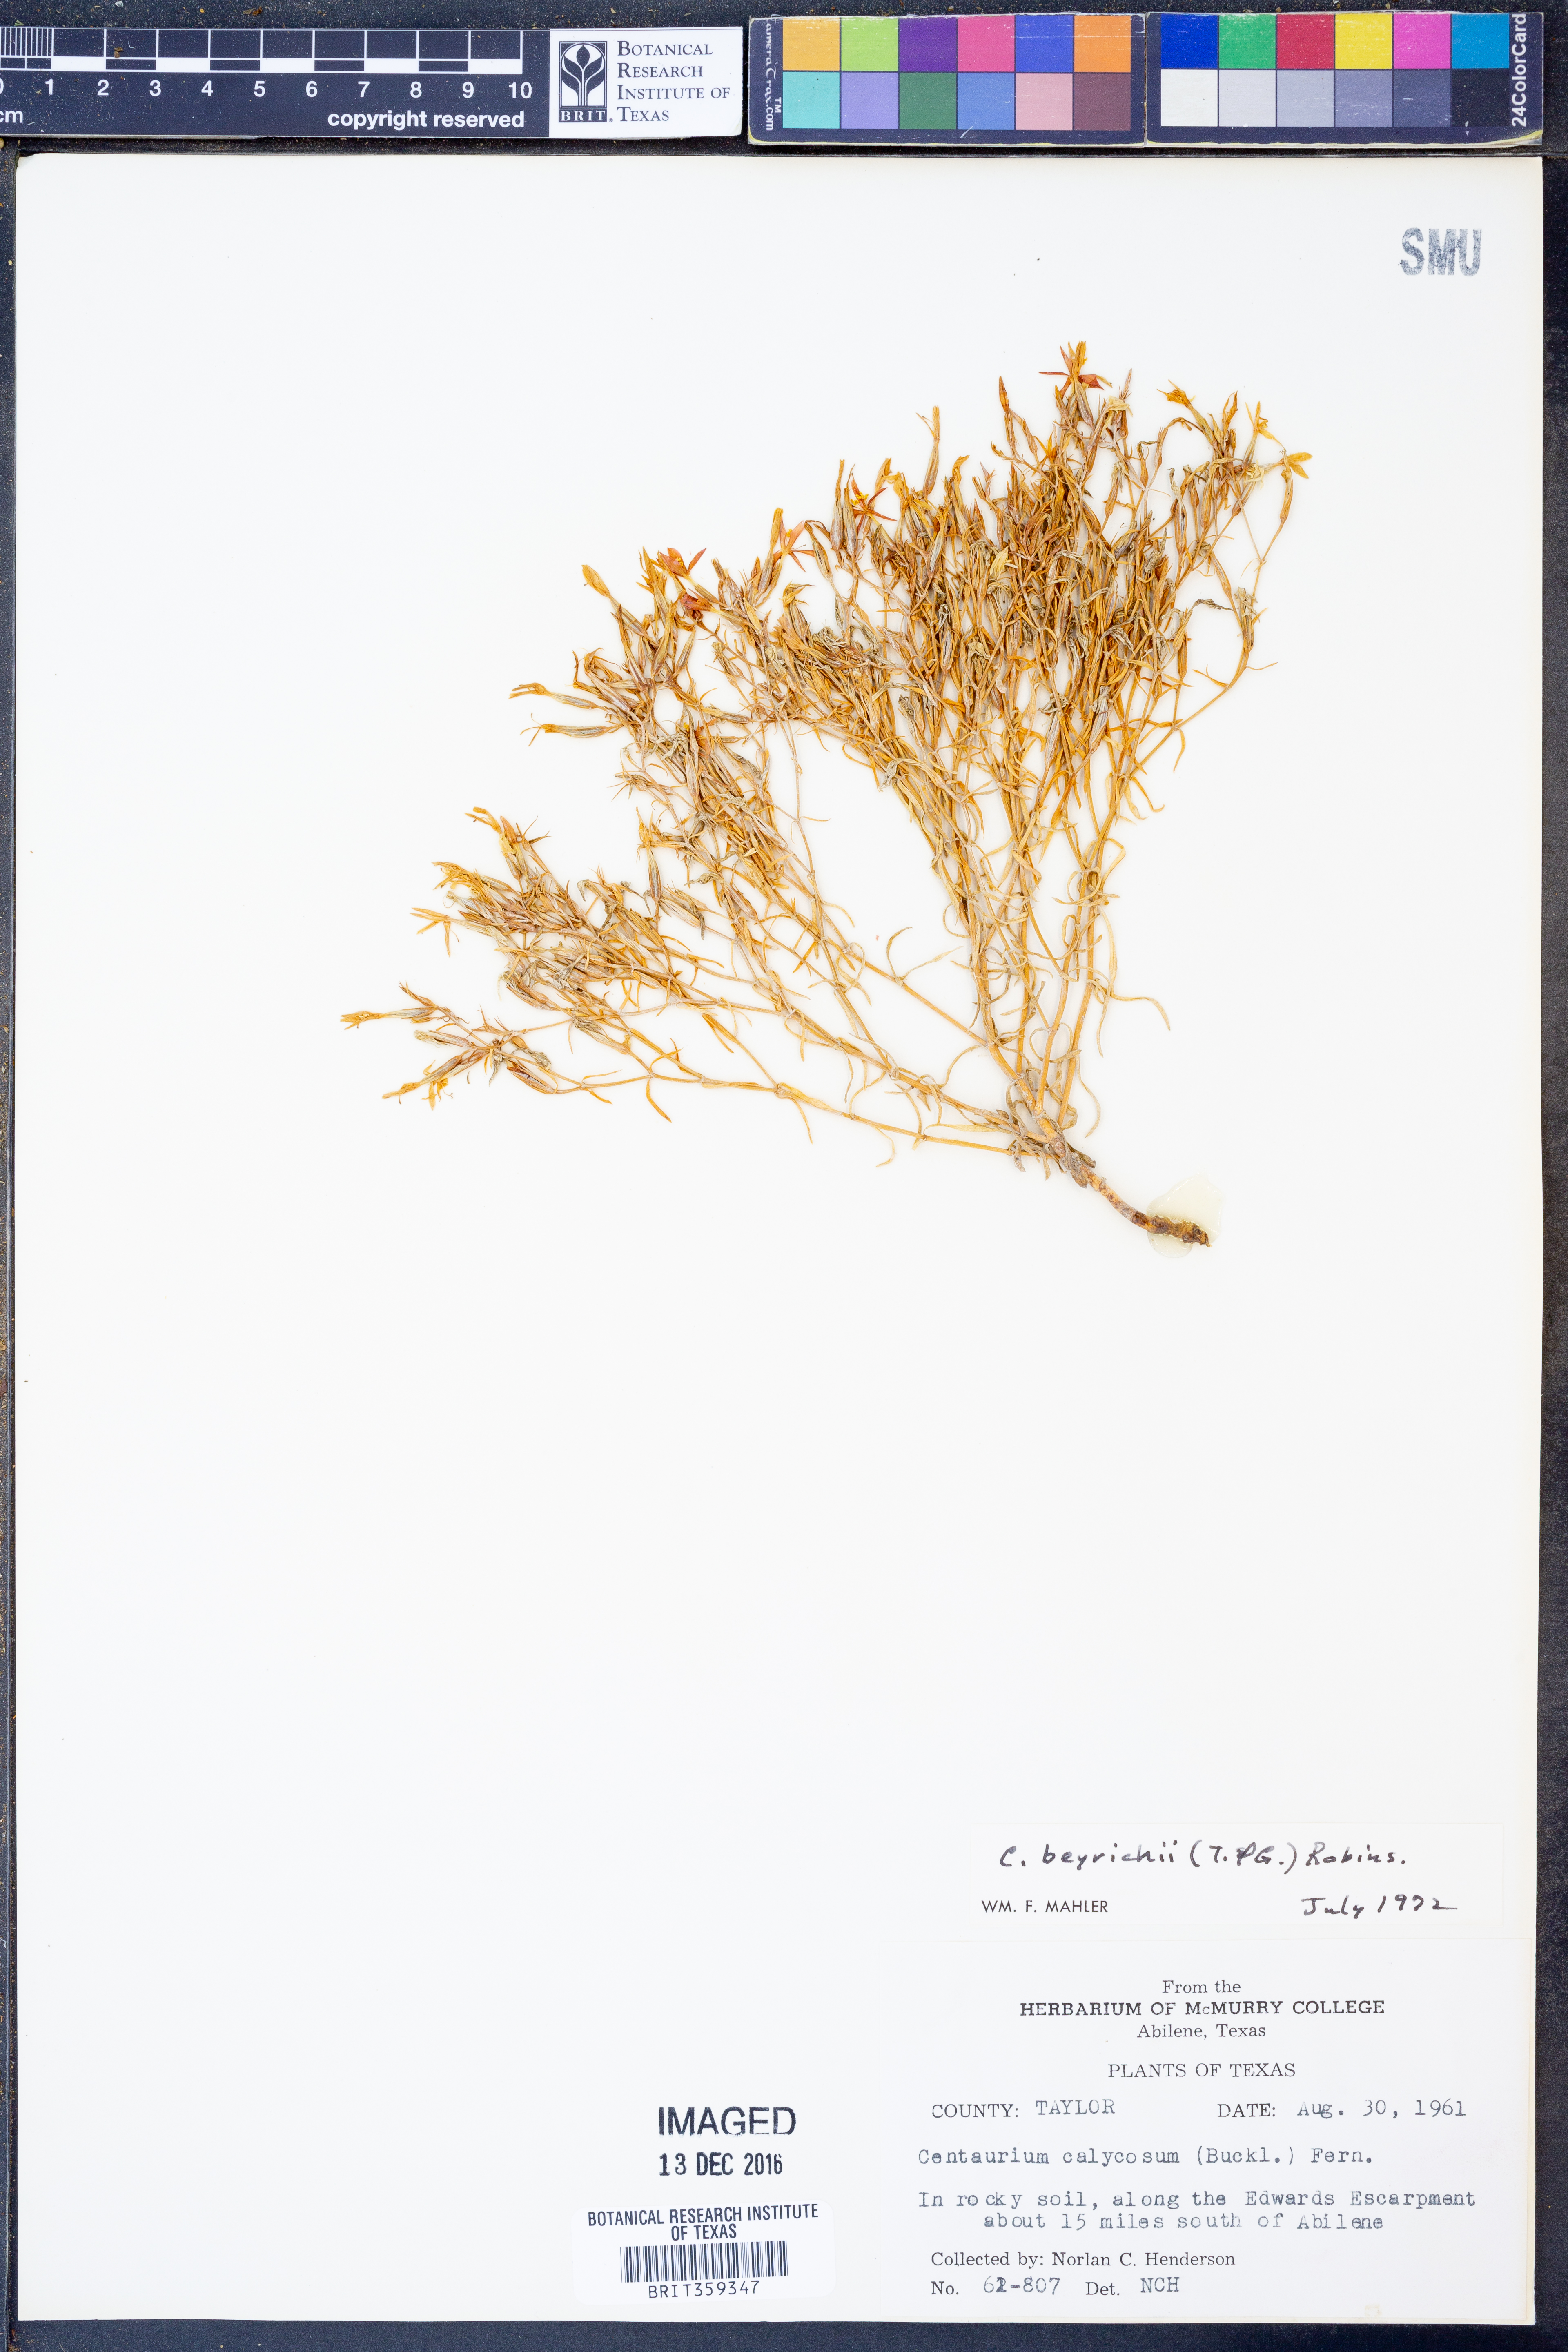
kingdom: Plantae
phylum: Tracheophyta
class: Magnoliopsida
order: Gentianales
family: Gentianaceae
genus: Zeltnera
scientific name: Zeltnera beyrichii
